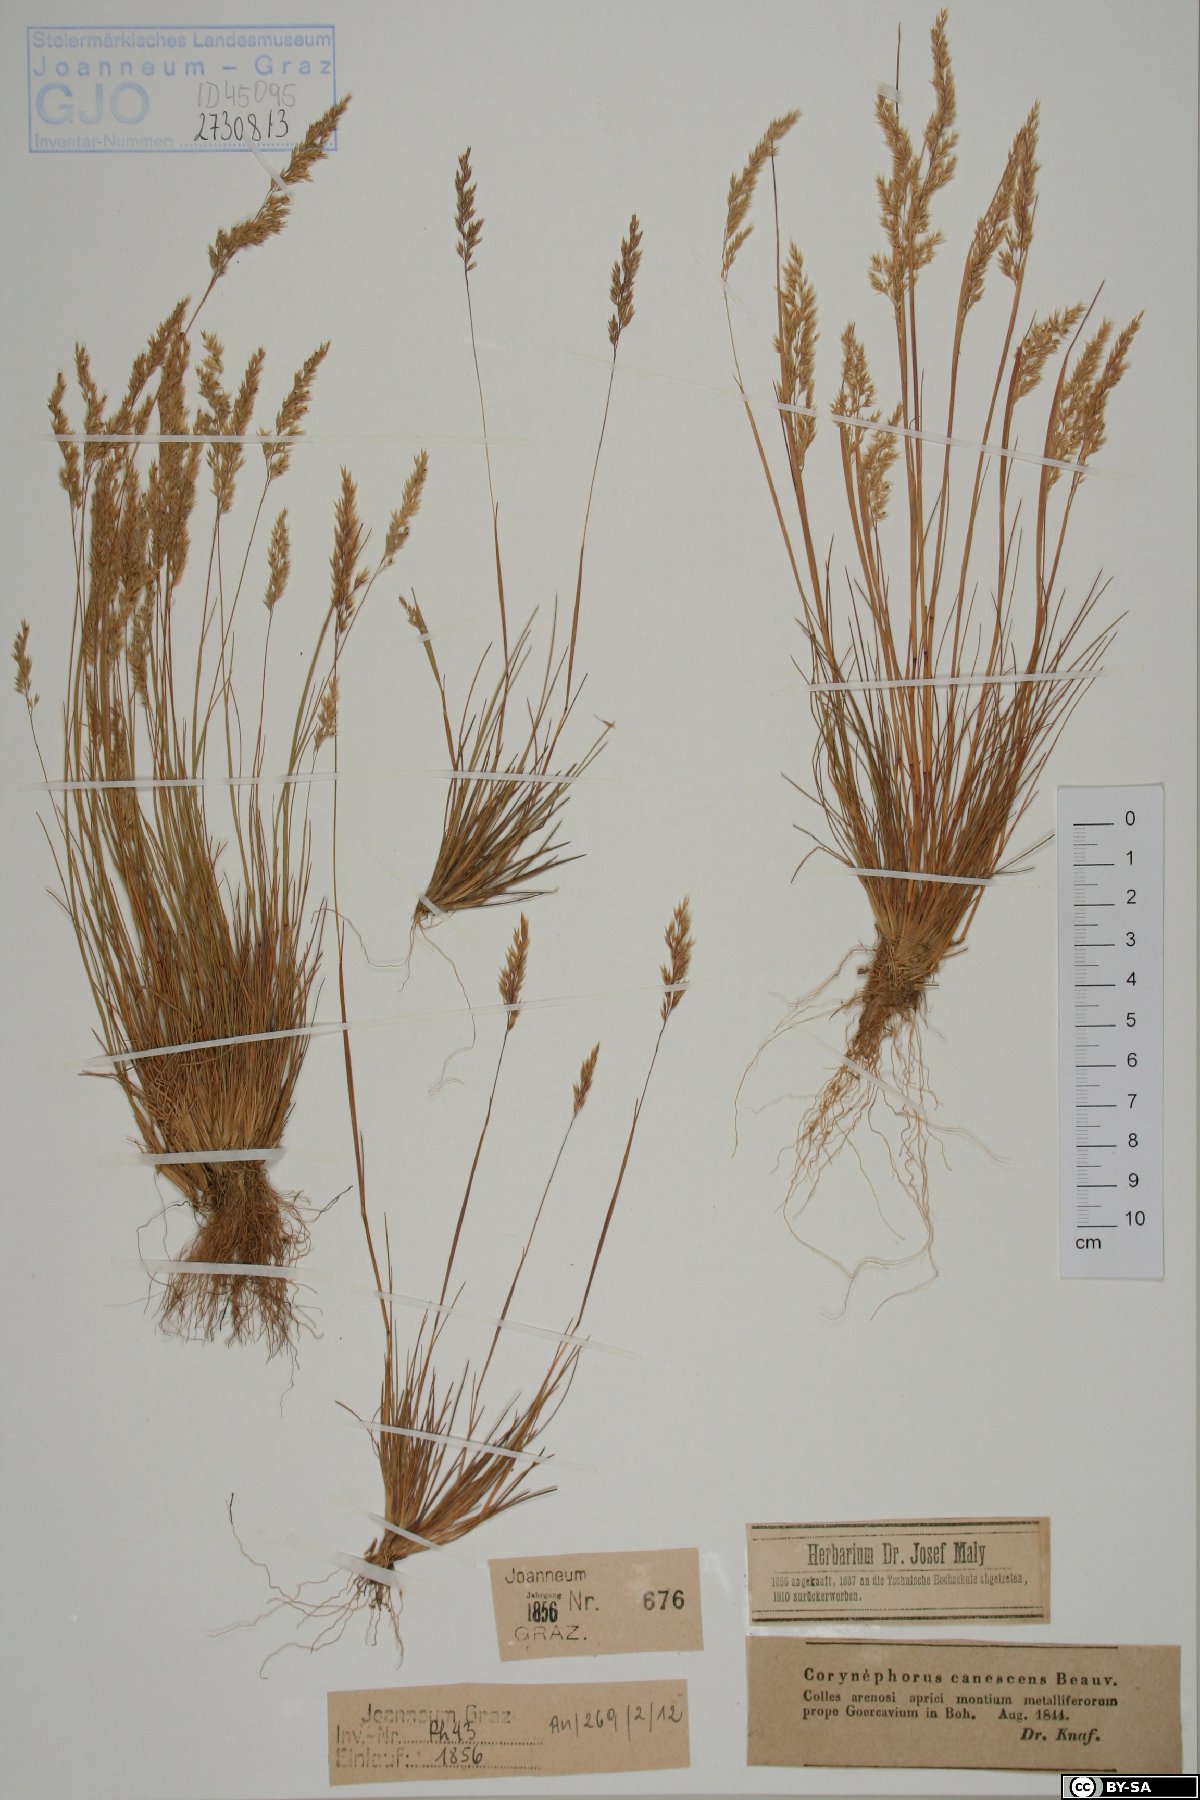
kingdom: Plantae
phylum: Tracheophyta
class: Liliopsida
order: Poales
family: Poaceae
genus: Corynephorus
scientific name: Corynephorus canescens
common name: Grey hair-grass
